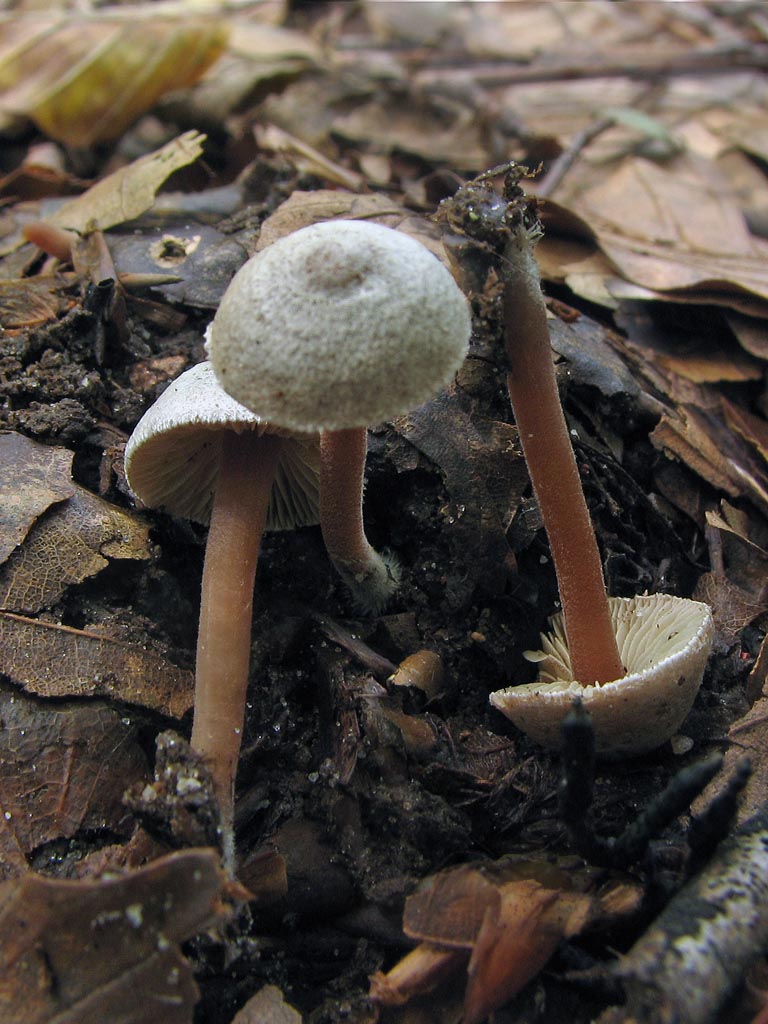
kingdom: Fungi
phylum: Basidiomycota
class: Agaricomycetes
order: Agaricales
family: Inocybaceae
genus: Inocybe
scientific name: Inocybe petiginosa
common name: liden trævlhat
